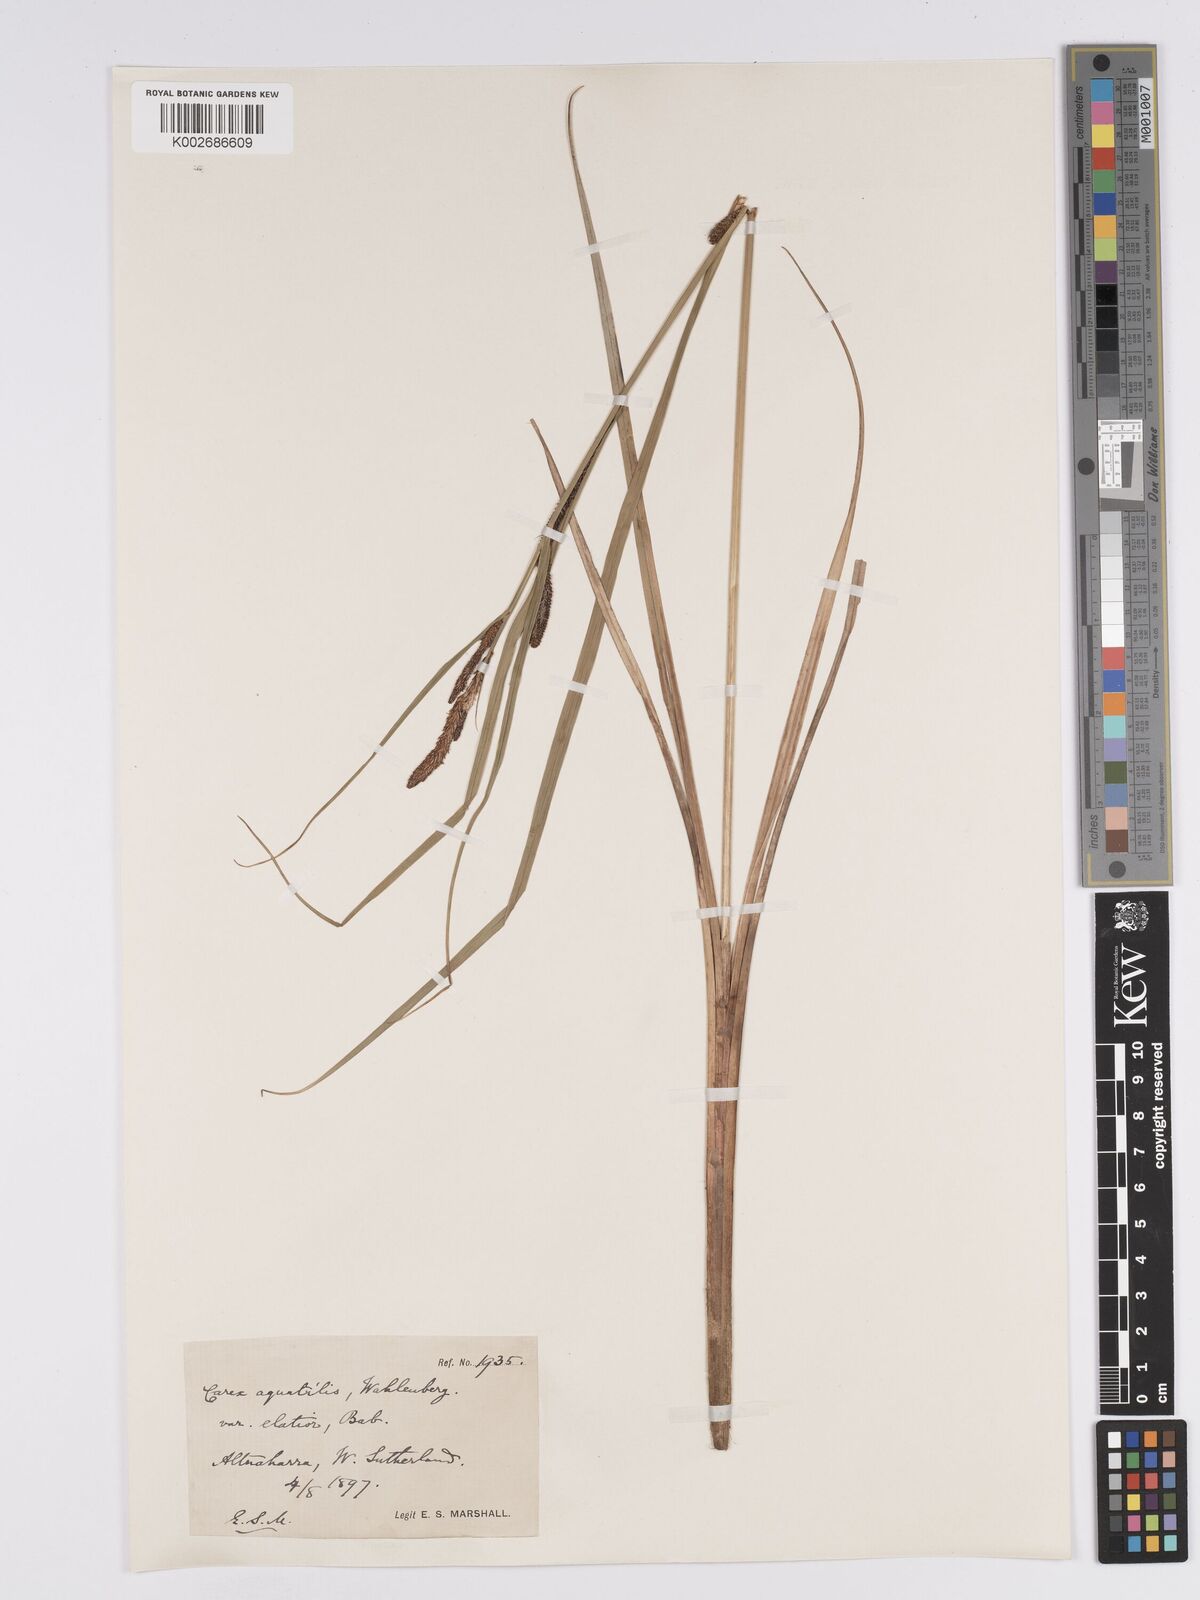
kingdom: Plantae
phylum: Tracheophyta
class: Liliopsida
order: Poales
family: Cyperaceae
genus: Carex
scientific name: Carex aquatilis
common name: Water sedge
